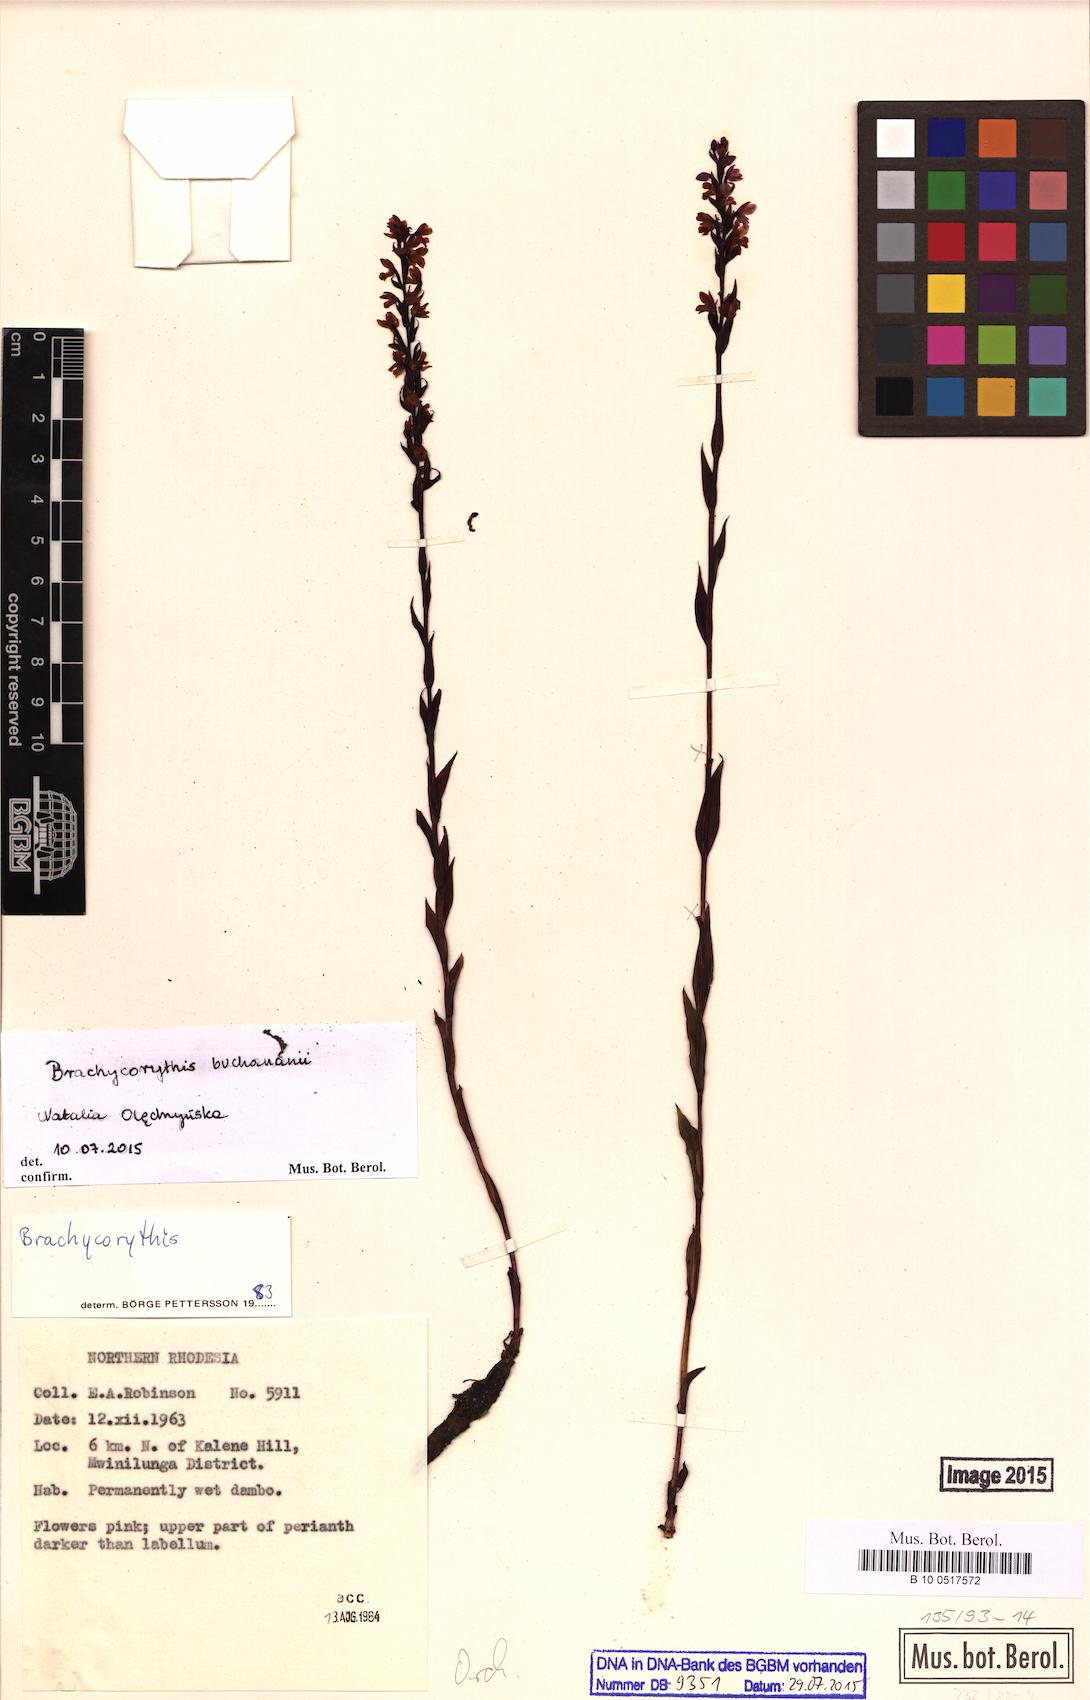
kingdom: Plantae
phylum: Tracheophyta
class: Liliopsida
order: Asparagales
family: Orchidaceae
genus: Brachycorythis
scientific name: Brachycorythis buchananii
